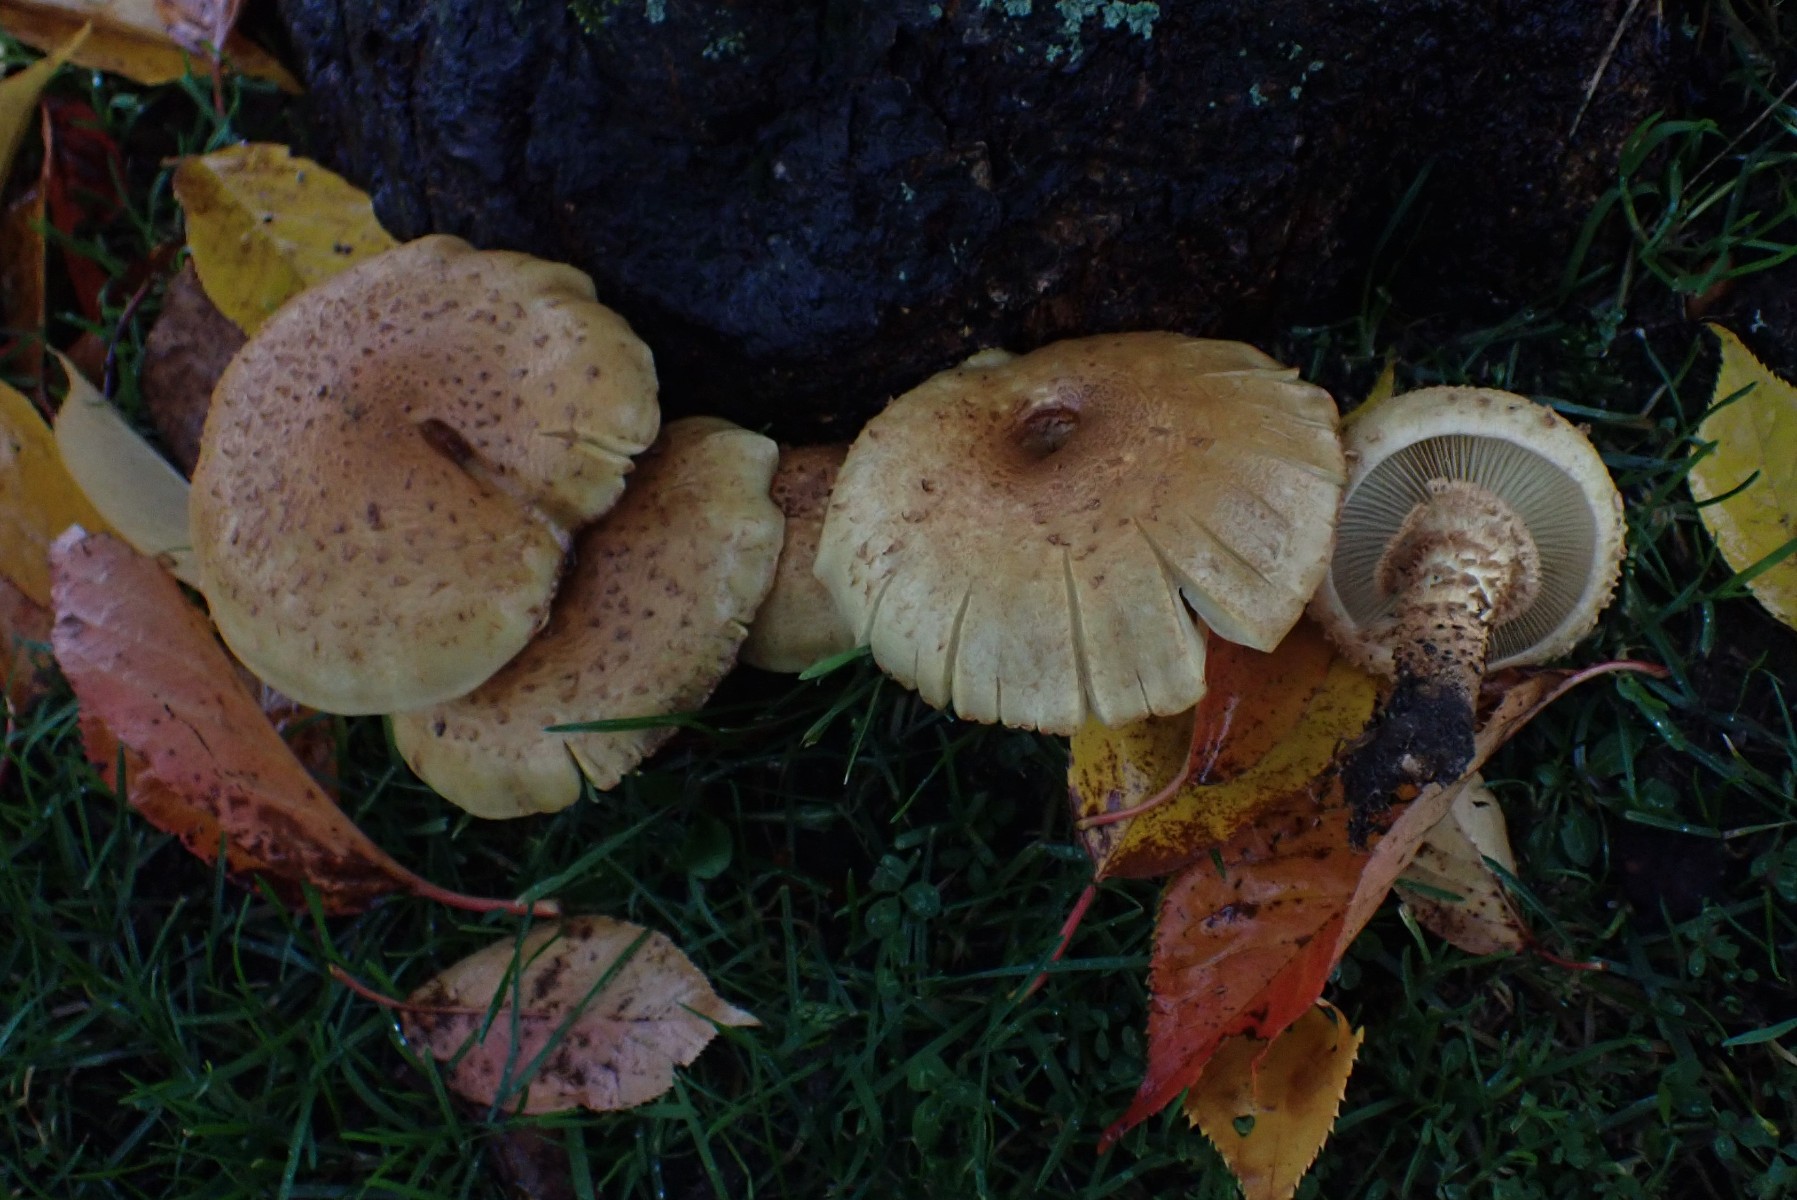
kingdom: Fungi
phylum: Basidiomycota
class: Agaricomycetes
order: Agaricales
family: Strophariaceae
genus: Pholiota
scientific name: Pholiota squarrosa
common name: krumskællet skælhat
